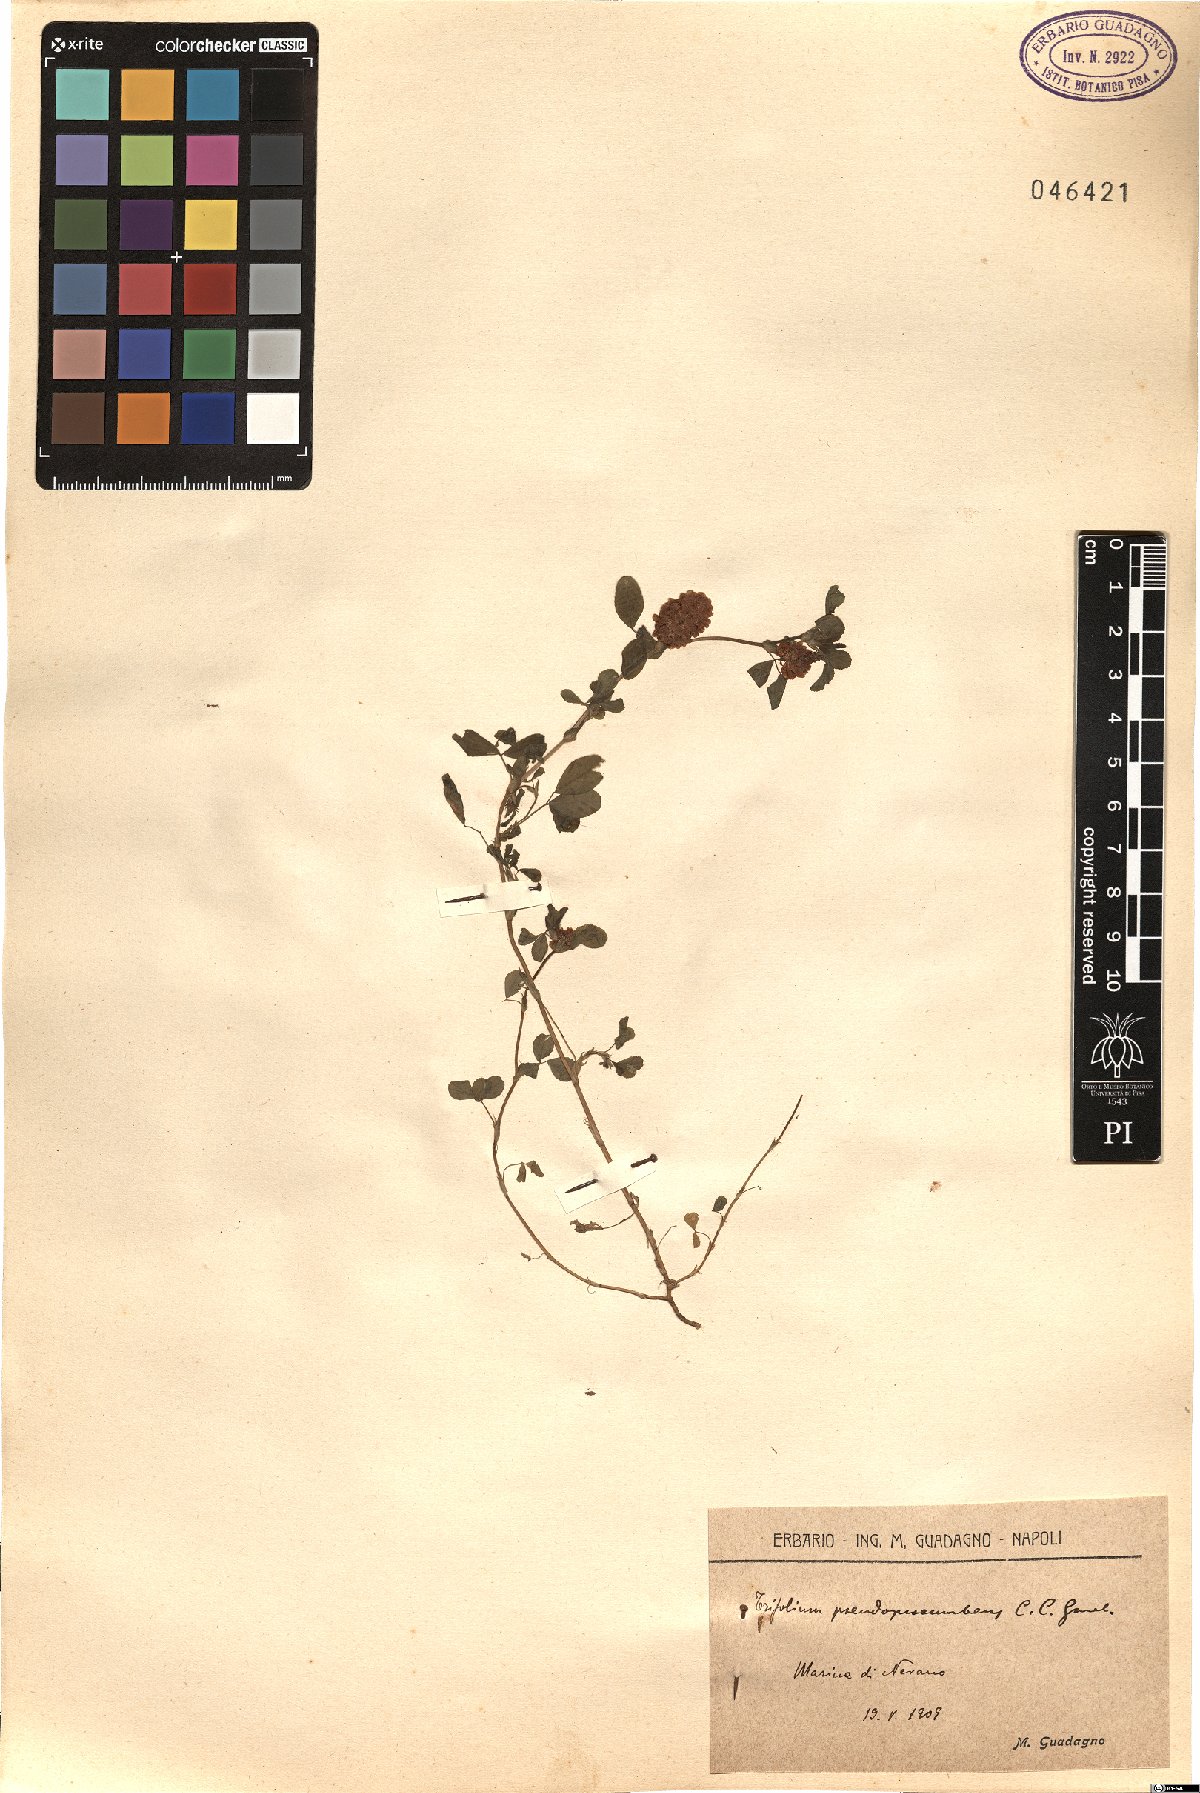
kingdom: Plantae
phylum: Tracheophyta
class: Magnoliopsida
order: Fabales
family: Fabaceae
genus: Trifolium
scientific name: Trifolium campestre
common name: Field clover
